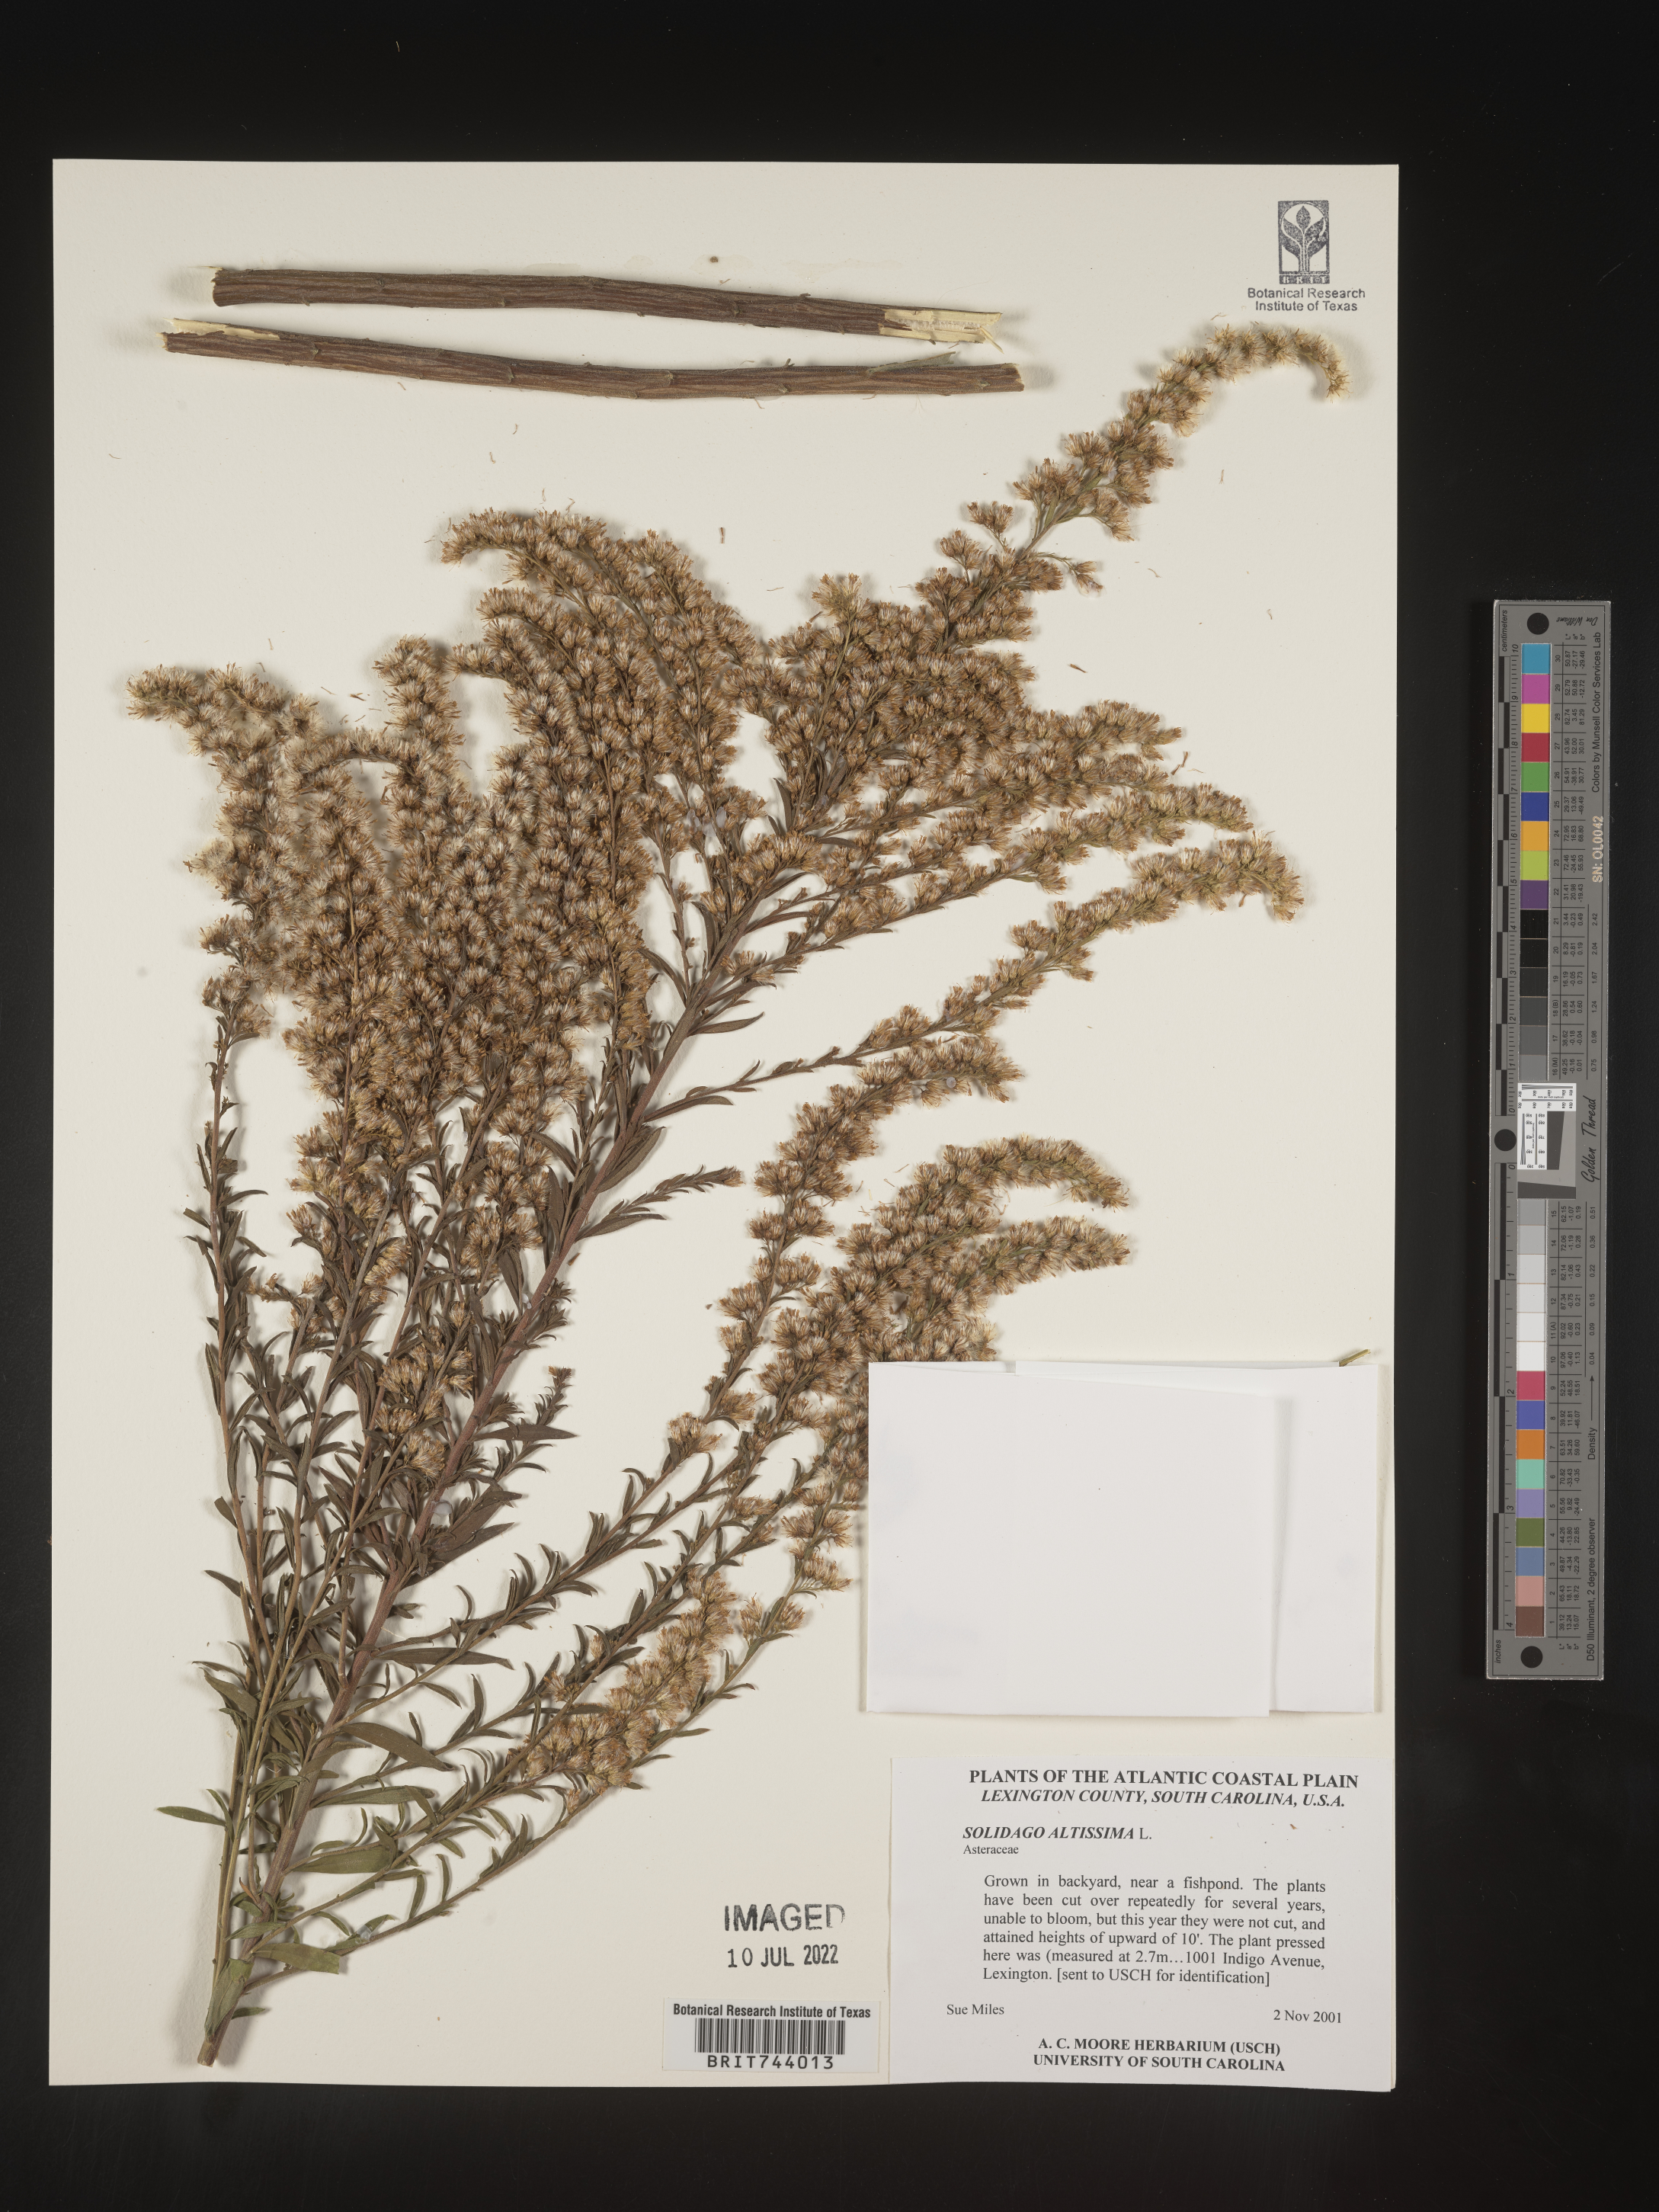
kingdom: Plantae
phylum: Tracheophyta
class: Magnoliopsida
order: Asterales
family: Asteraceae
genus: Solidago
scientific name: Solidago altissima
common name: Late goldenrod
